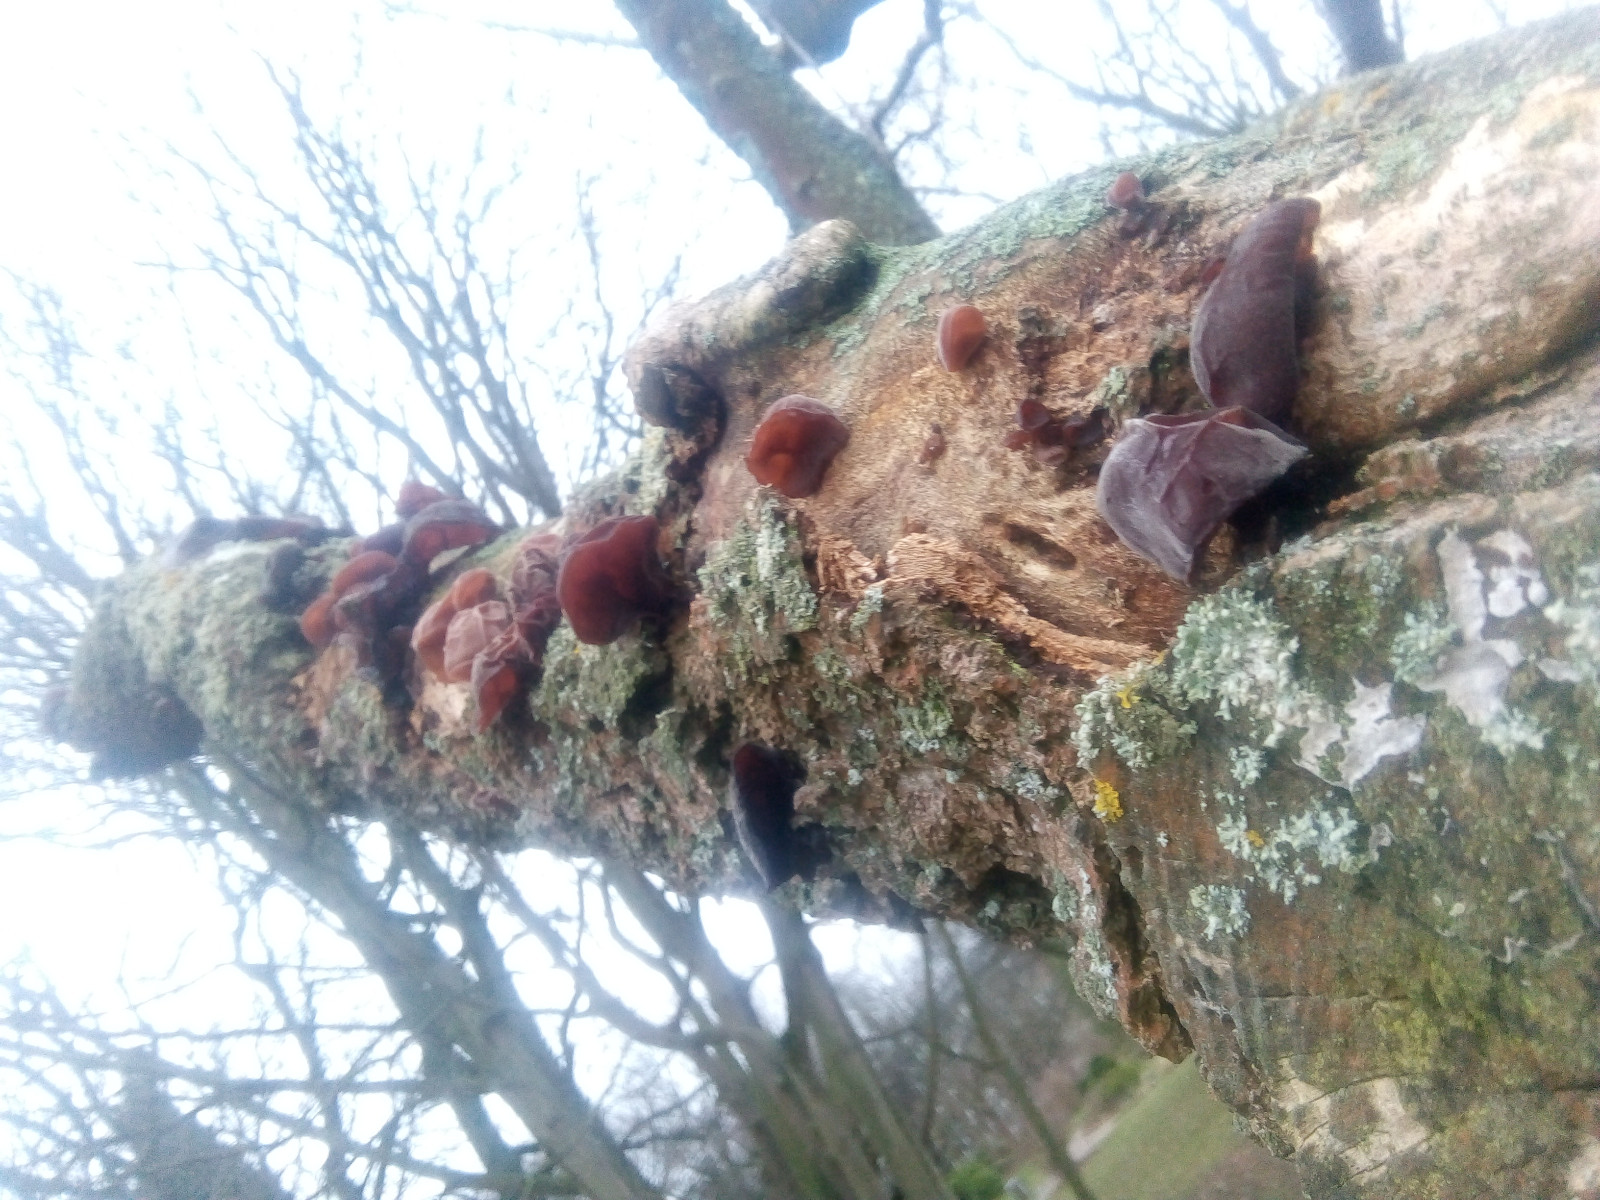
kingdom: Fungi
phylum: Basidiomycota
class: Agaricomycetes
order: Auriculariales
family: Auriculariaceae
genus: Auricularia
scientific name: Auricularia auricula-judae
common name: almindelig judasøre
